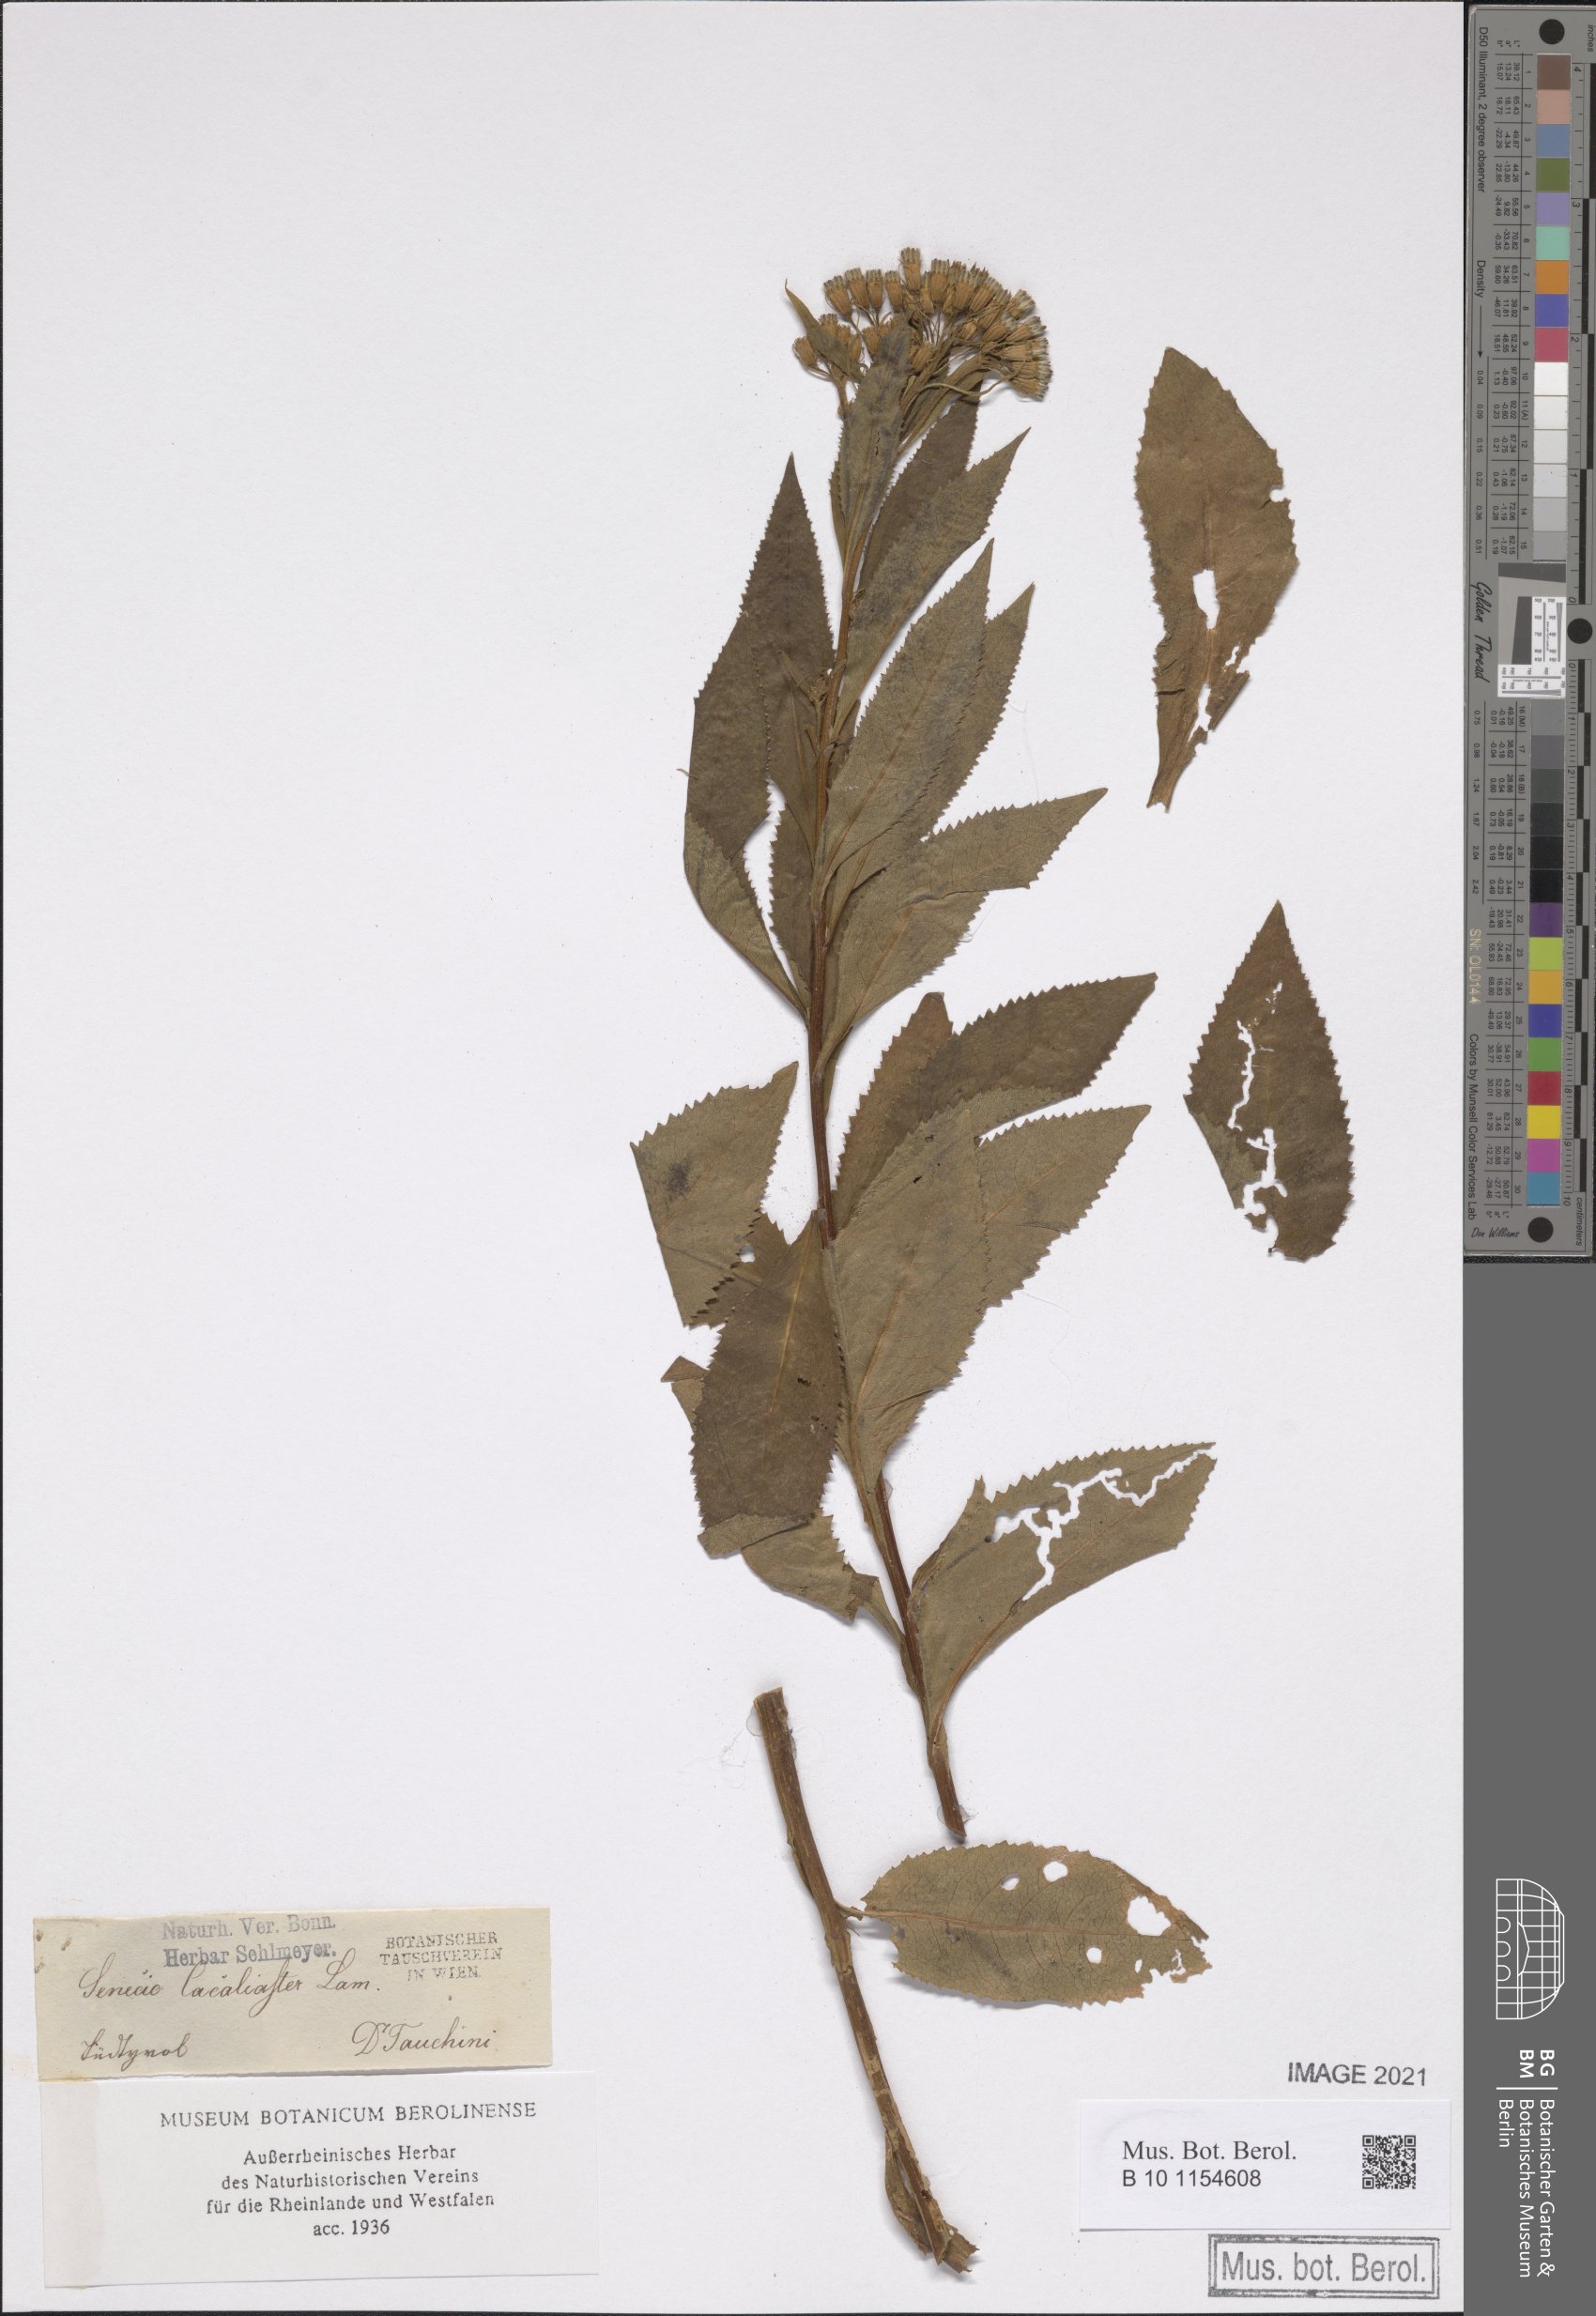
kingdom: Plantae
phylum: Tracheophyta
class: Magnoliopsida
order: Asterales
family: Asteraceae
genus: Senecio
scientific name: Senecio cacaliaster
